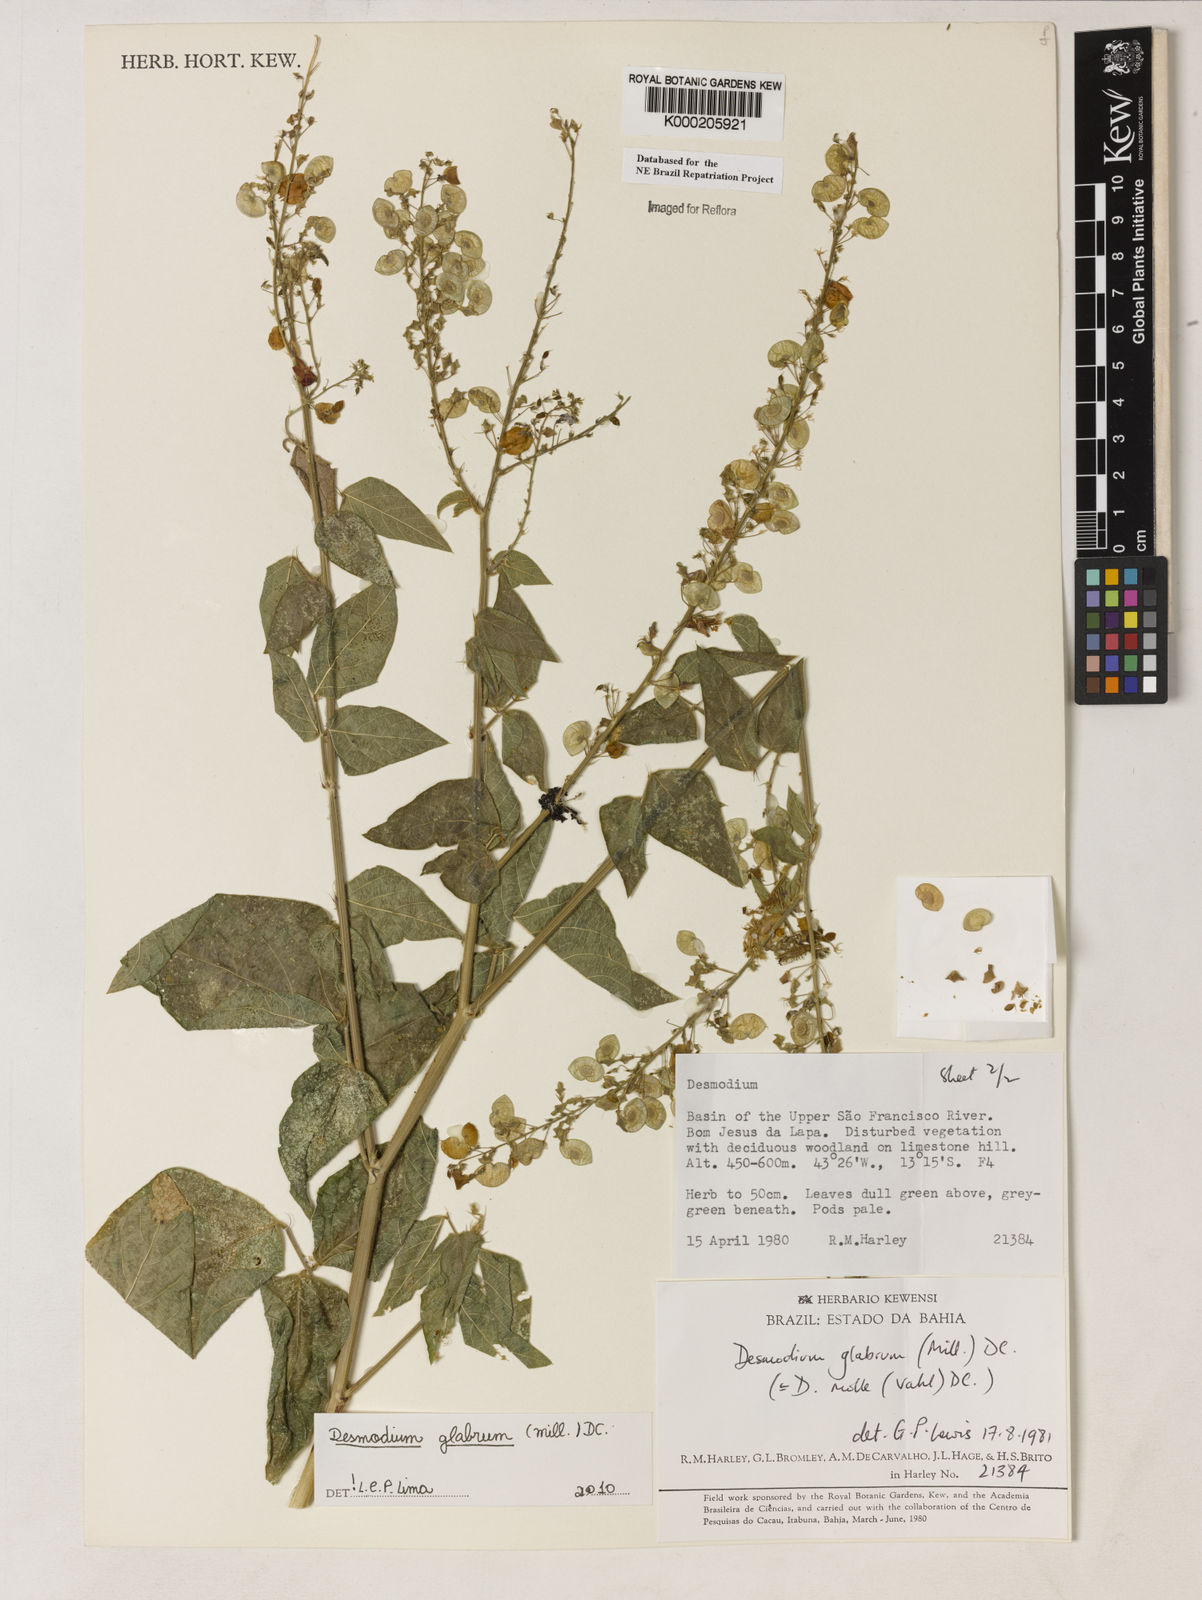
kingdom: Plantae
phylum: Tracheophyta
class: Magnoliopsida
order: Fabales
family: Fabaceae
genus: Desmodium
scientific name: Desmodium glabrum
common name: Zarzabacoa dulce
